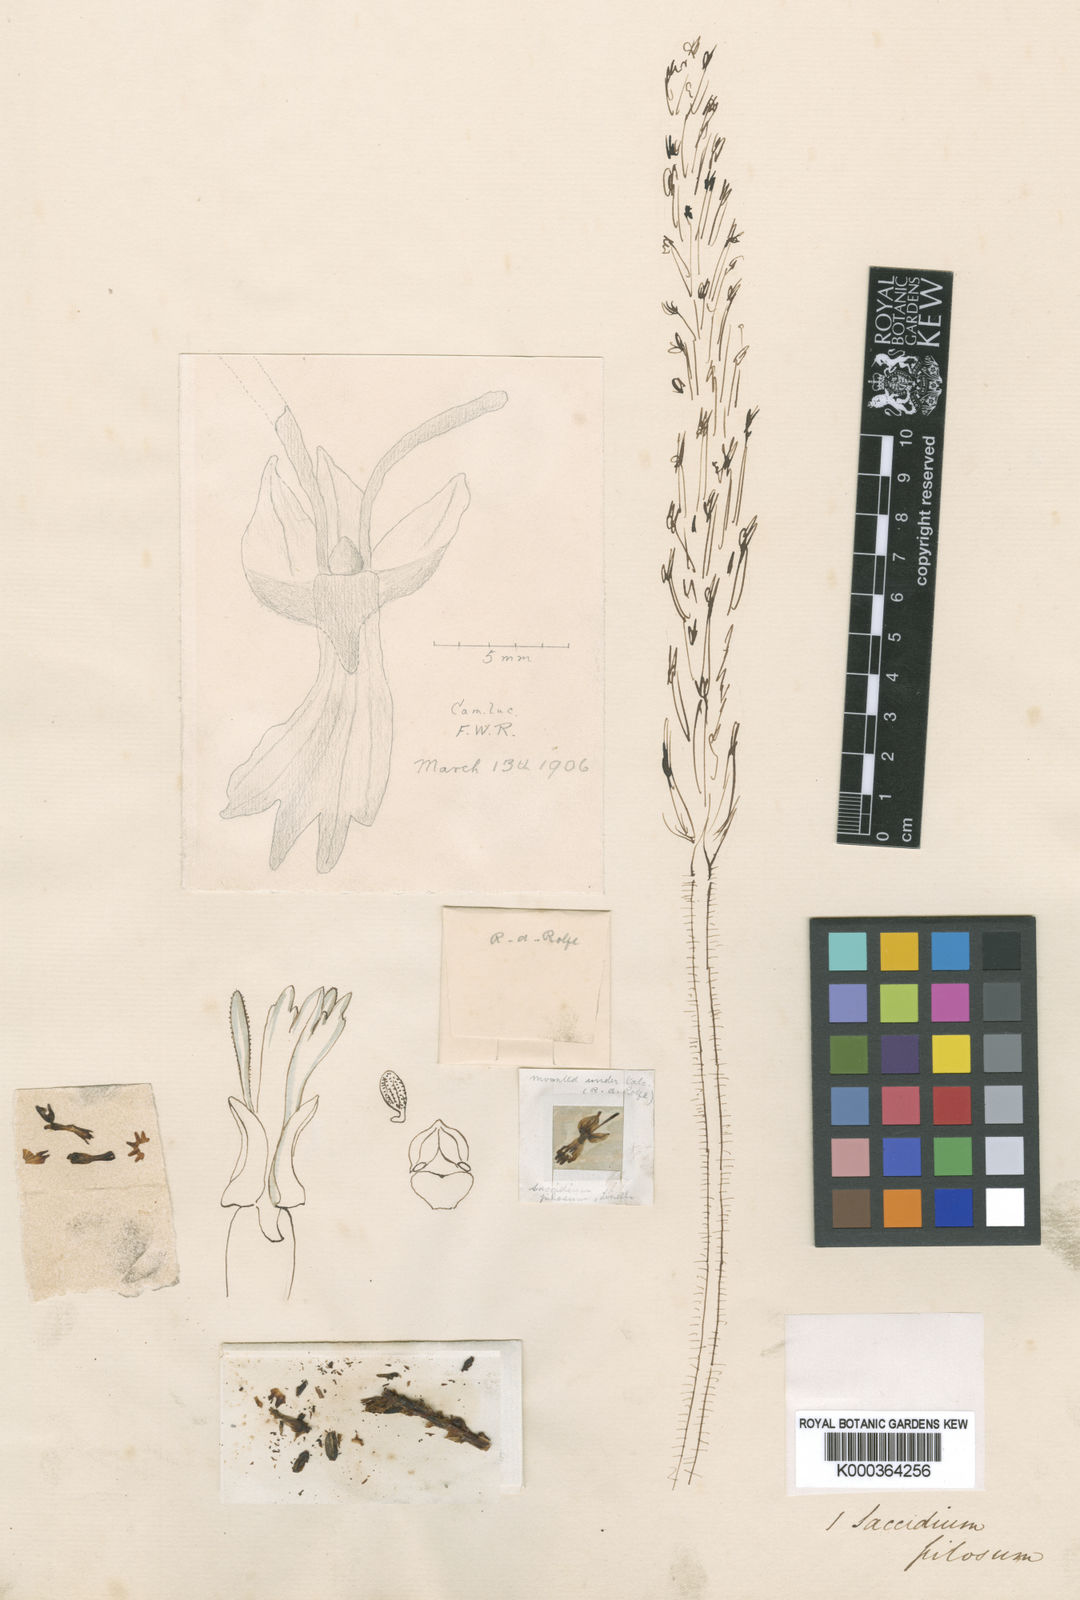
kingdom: Plantae
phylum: Tracheophyta
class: Liliopsida
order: Asparagales
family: Orchidaceae
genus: Holothrix
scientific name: Holothrix pilosa
